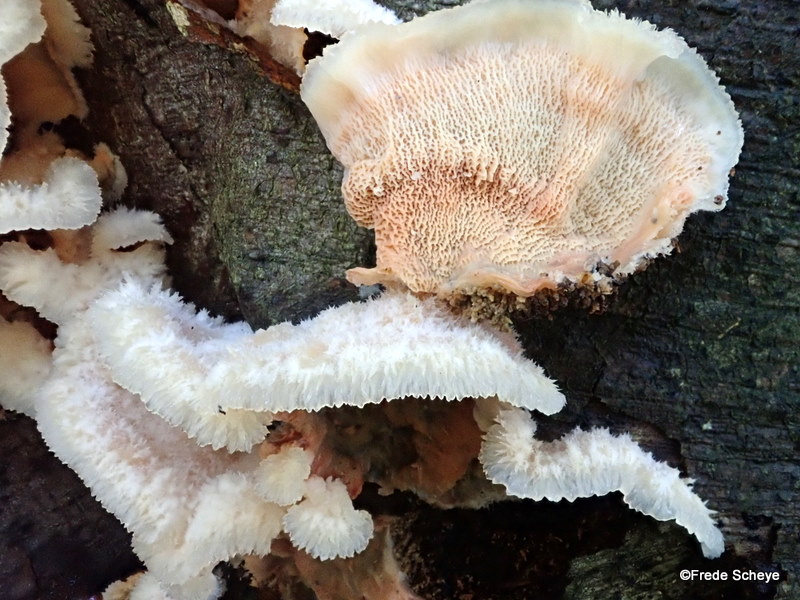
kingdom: Fungi
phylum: Basidiomycota
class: Agaricomycetes
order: Polyporales
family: Meruliaceae
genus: Phlebia
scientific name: Phlebia tremellosa
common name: bævrende åresvamp
